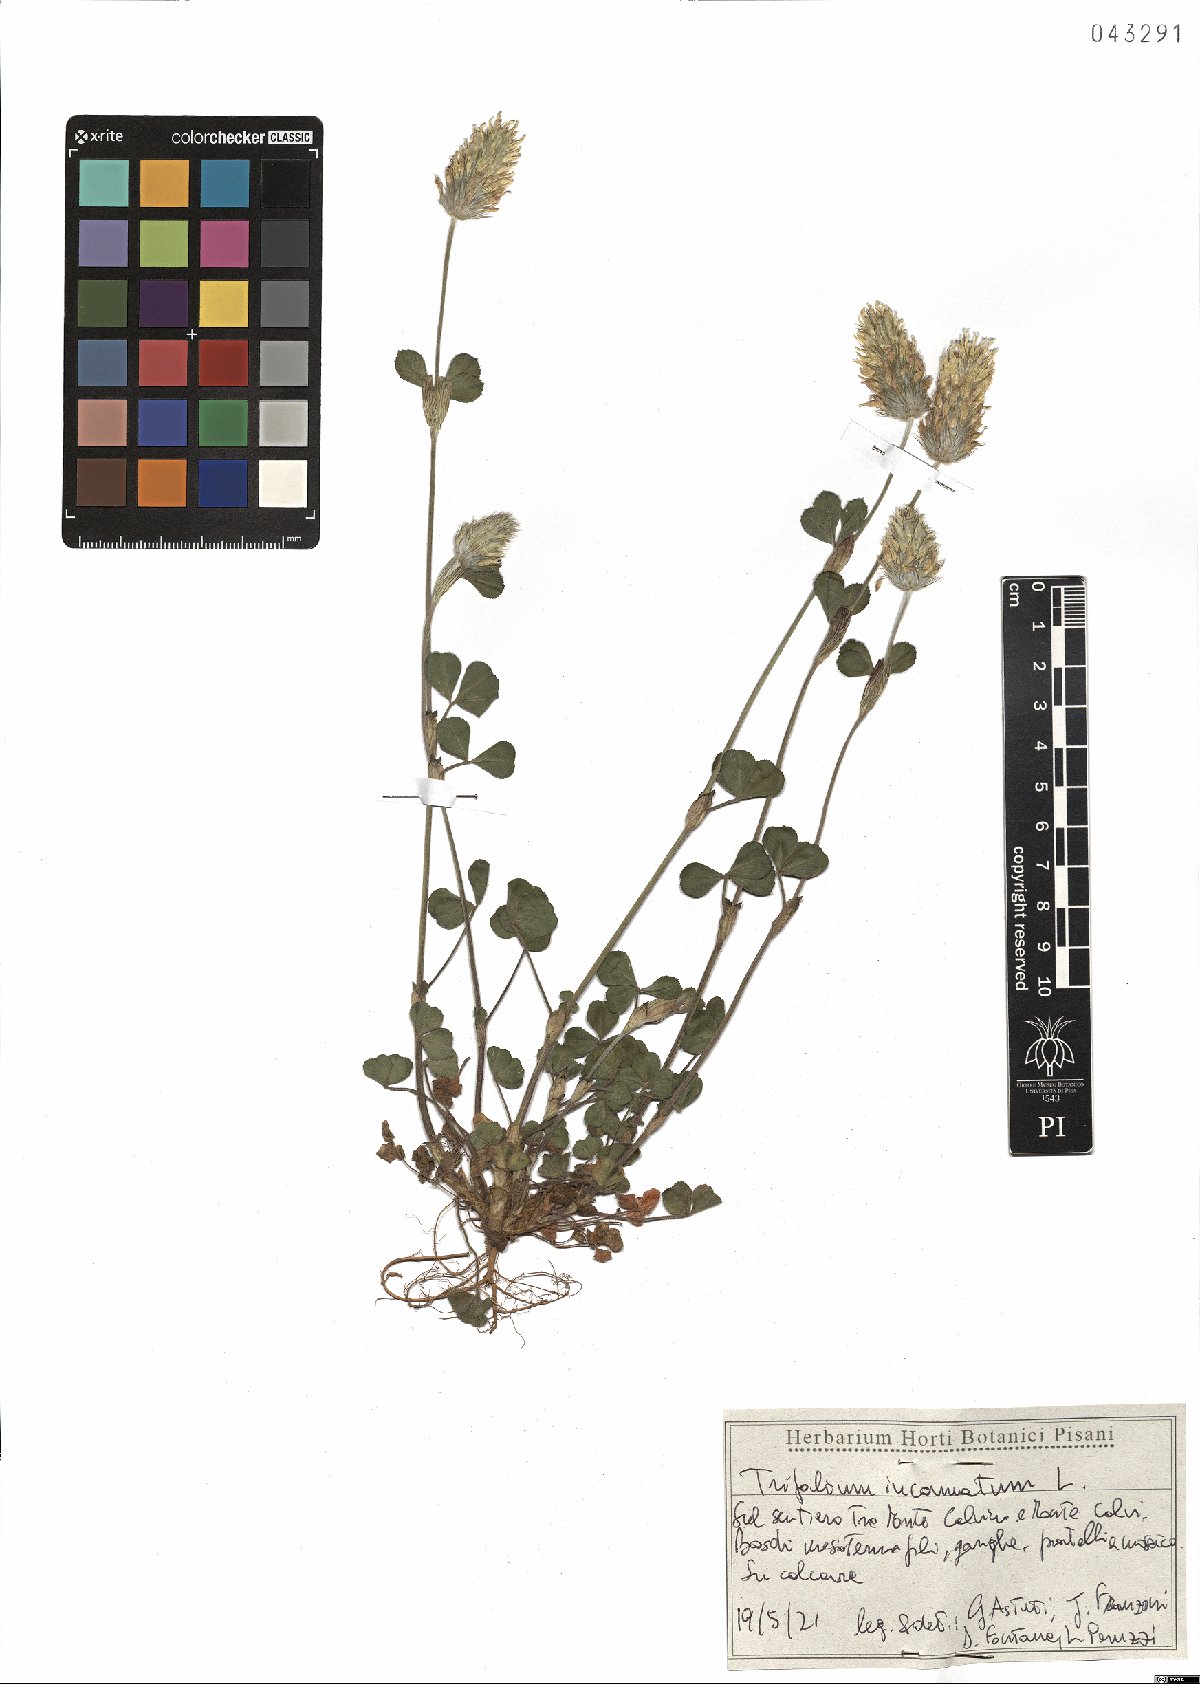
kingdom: Plantae
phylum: Tracheophyta
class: Magnoliopsida
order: Fabales
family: Fabaceae
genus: Trifolium
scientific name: Trifolium incarnatum
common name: Crimson clover
